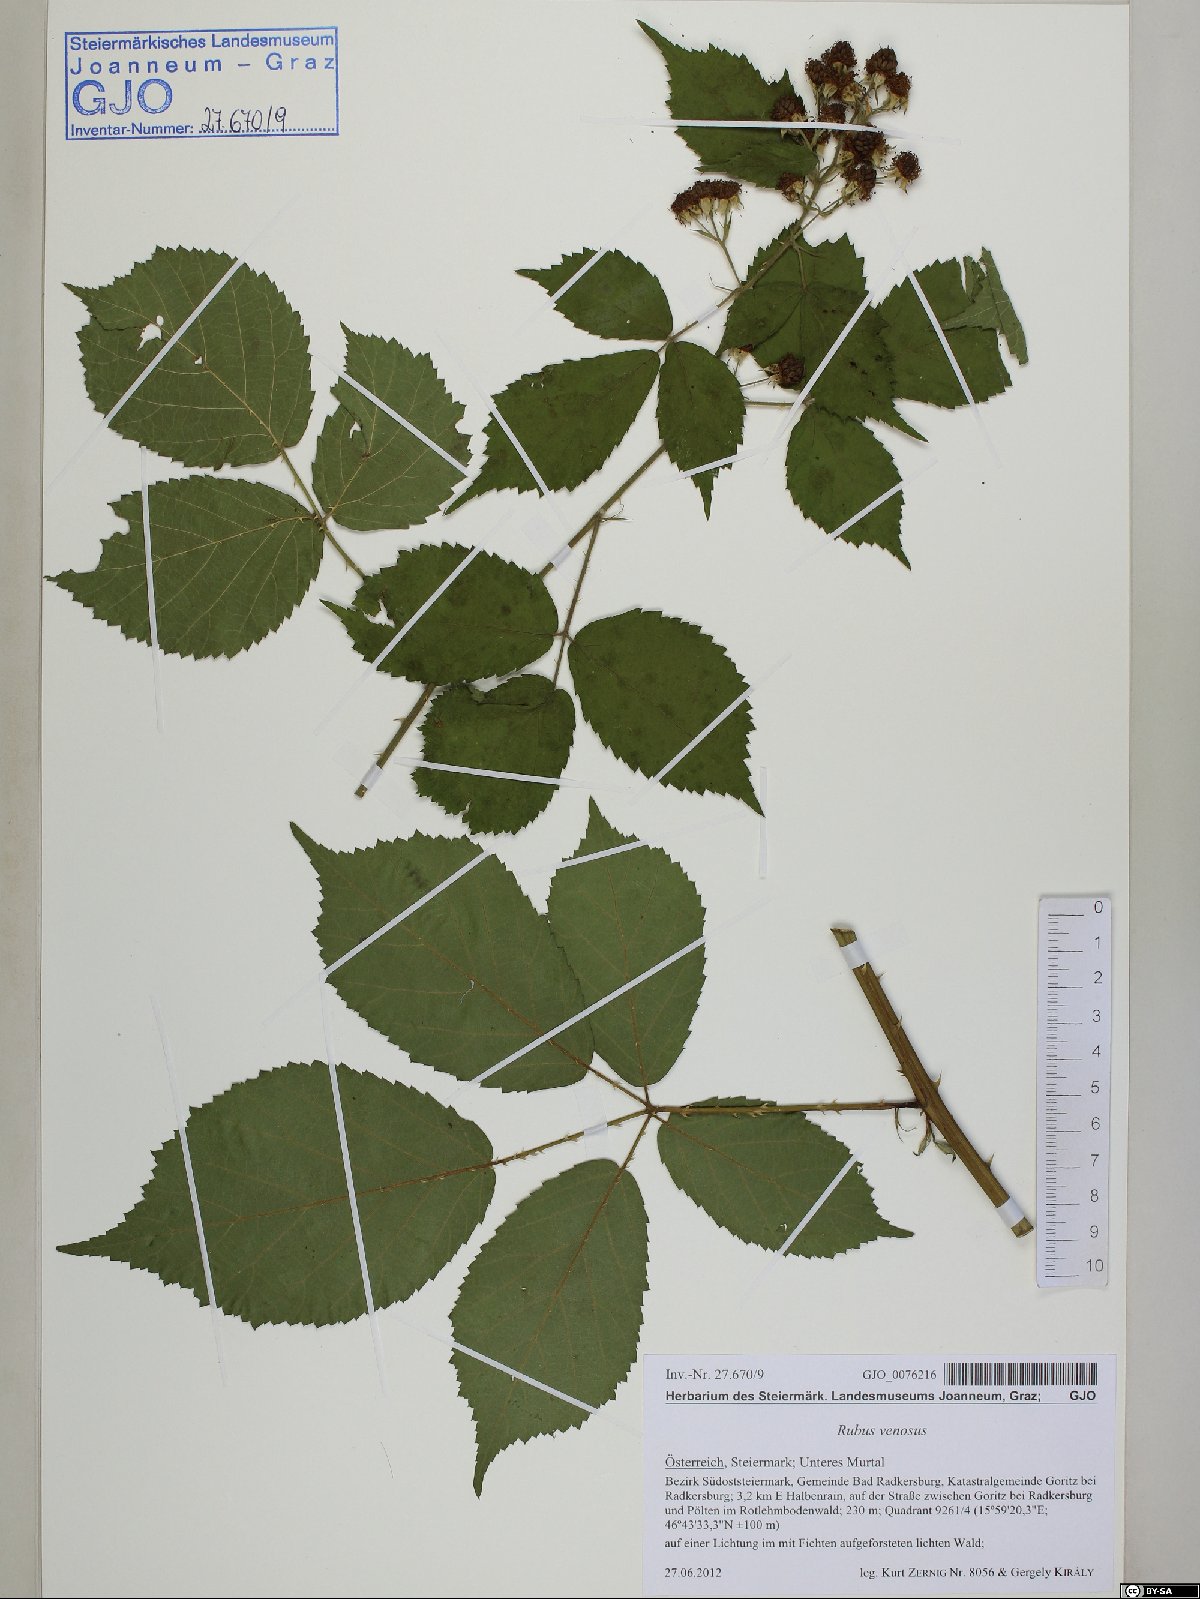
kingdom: Plantae
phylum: Tracheophyta
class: Magnoliopsida
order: Rosales
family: Rosaceae
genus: Rubus
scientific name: Rubus venosus
